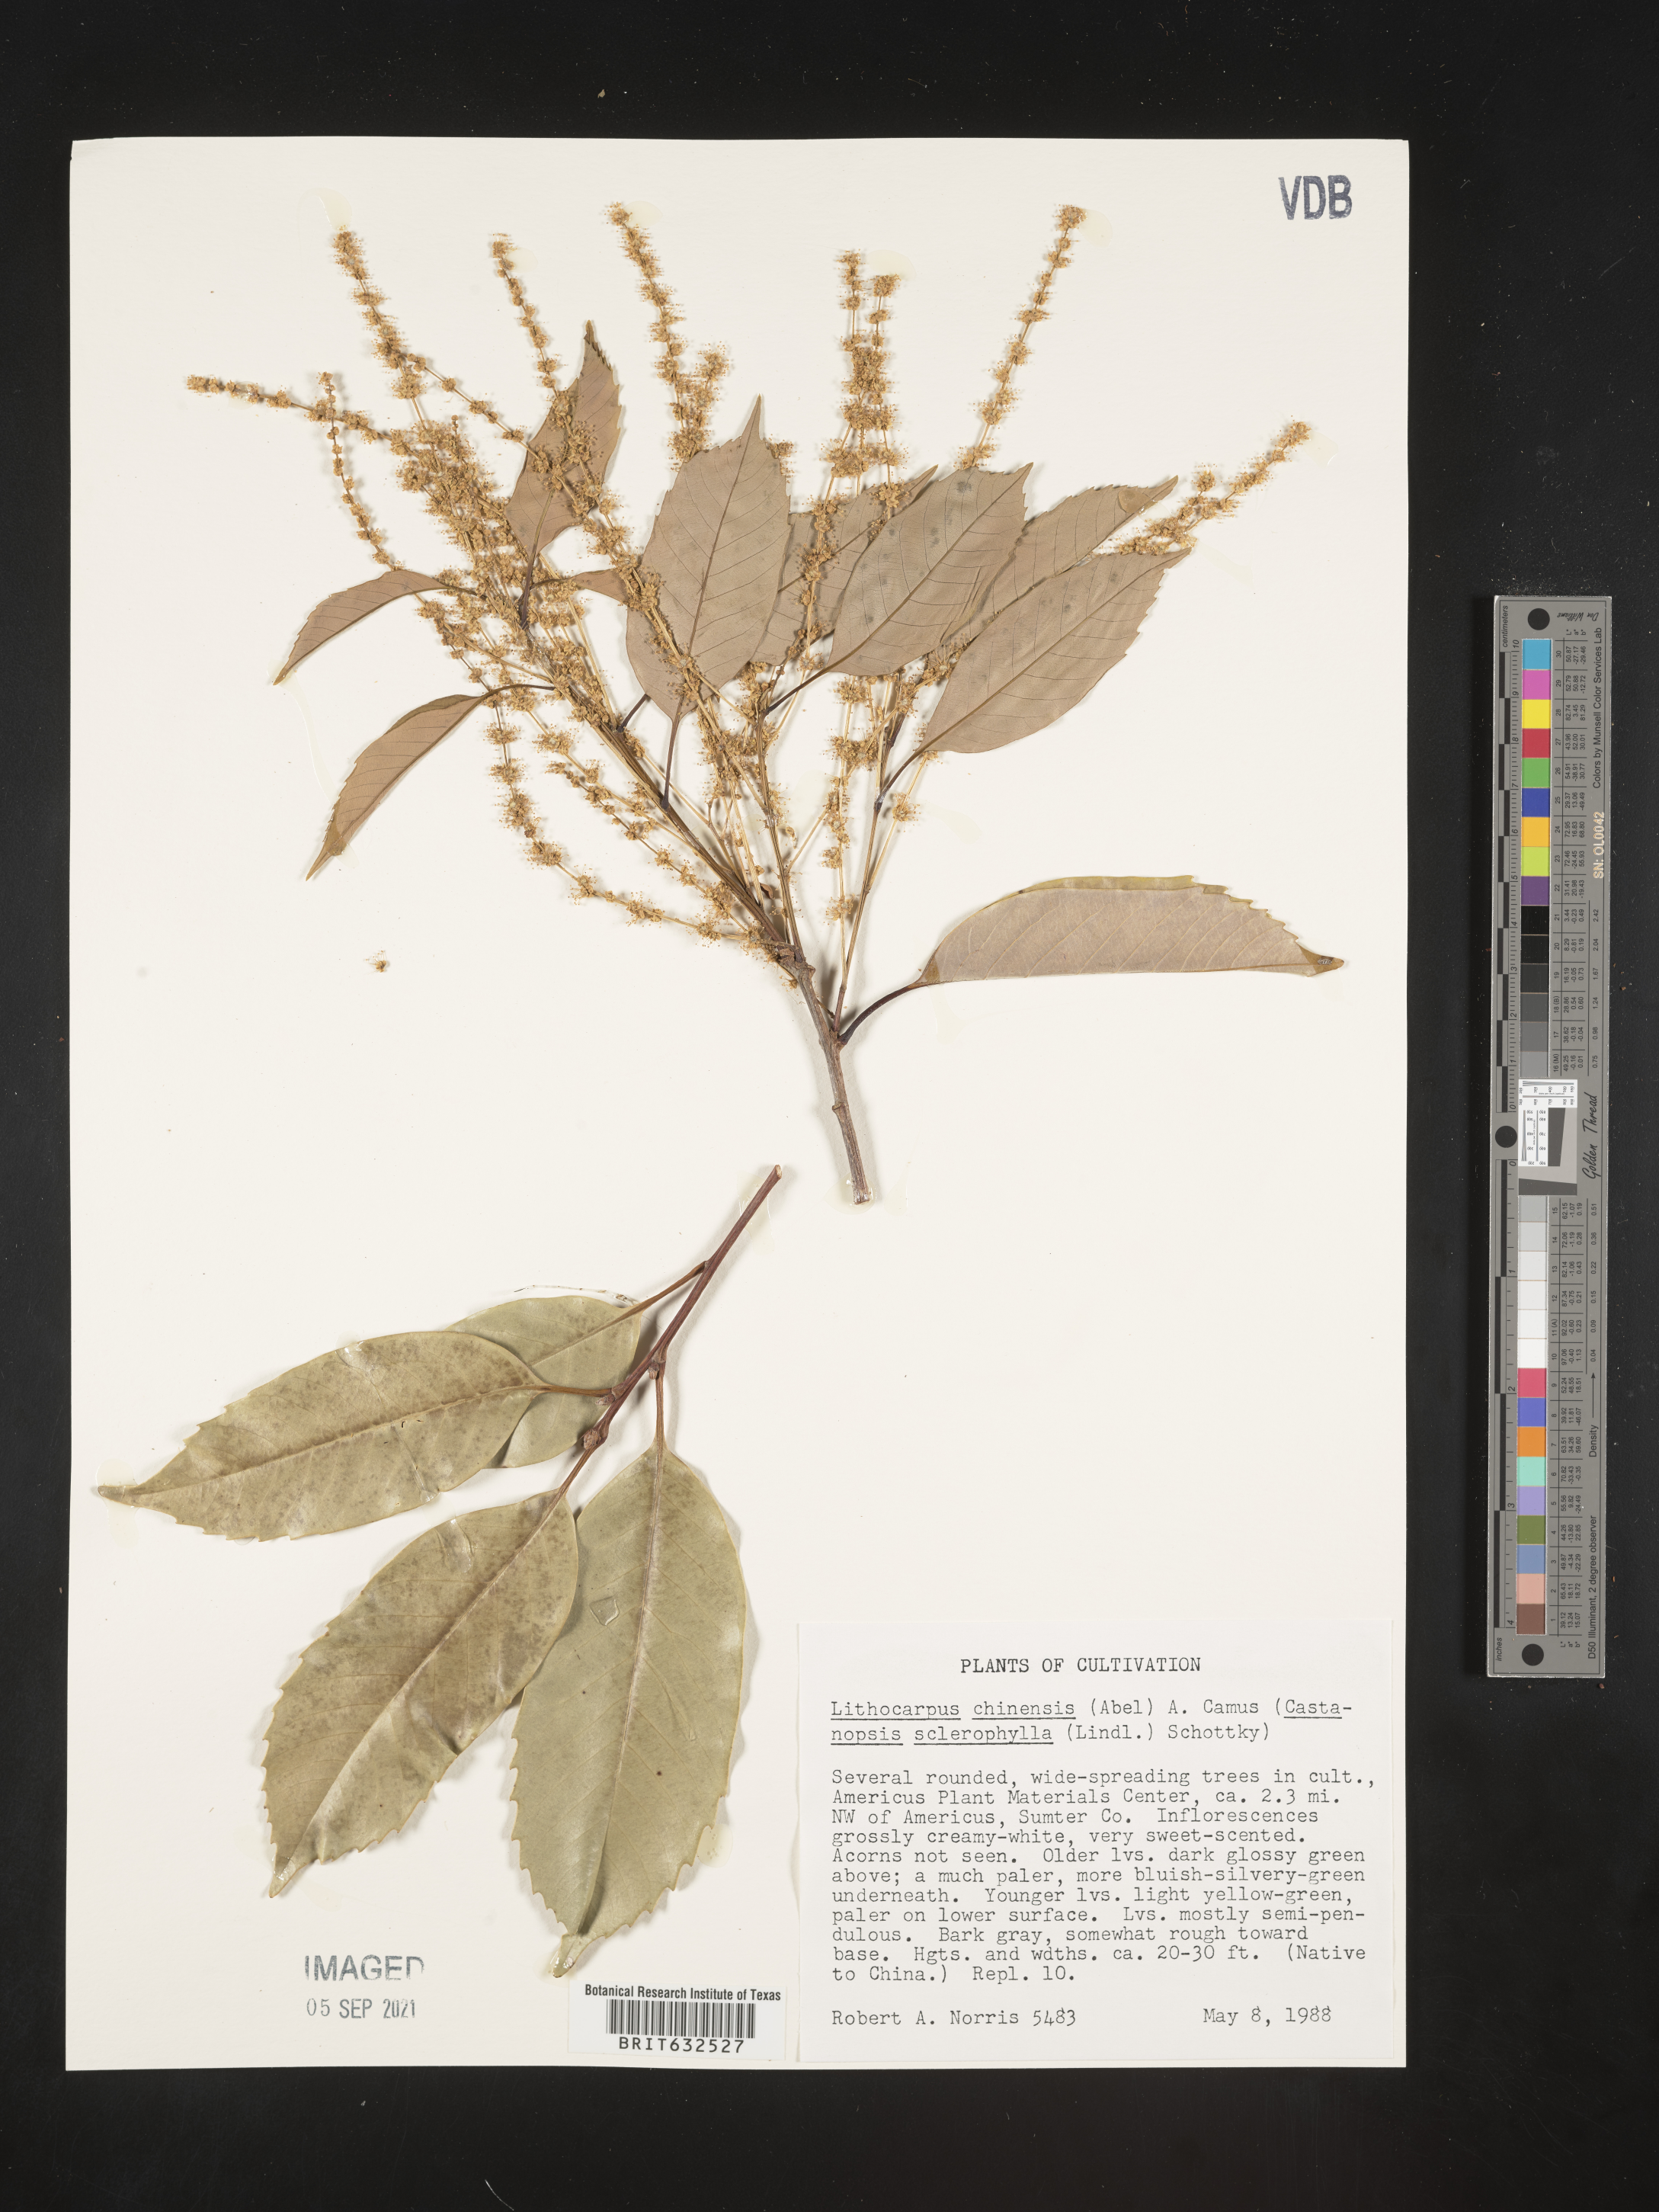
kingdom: Plantae
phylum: Tracheophyta
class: Magnoliopsida
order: Fagales
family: Fagaceae
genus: Lithocarpus
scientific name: Lithocarpus
